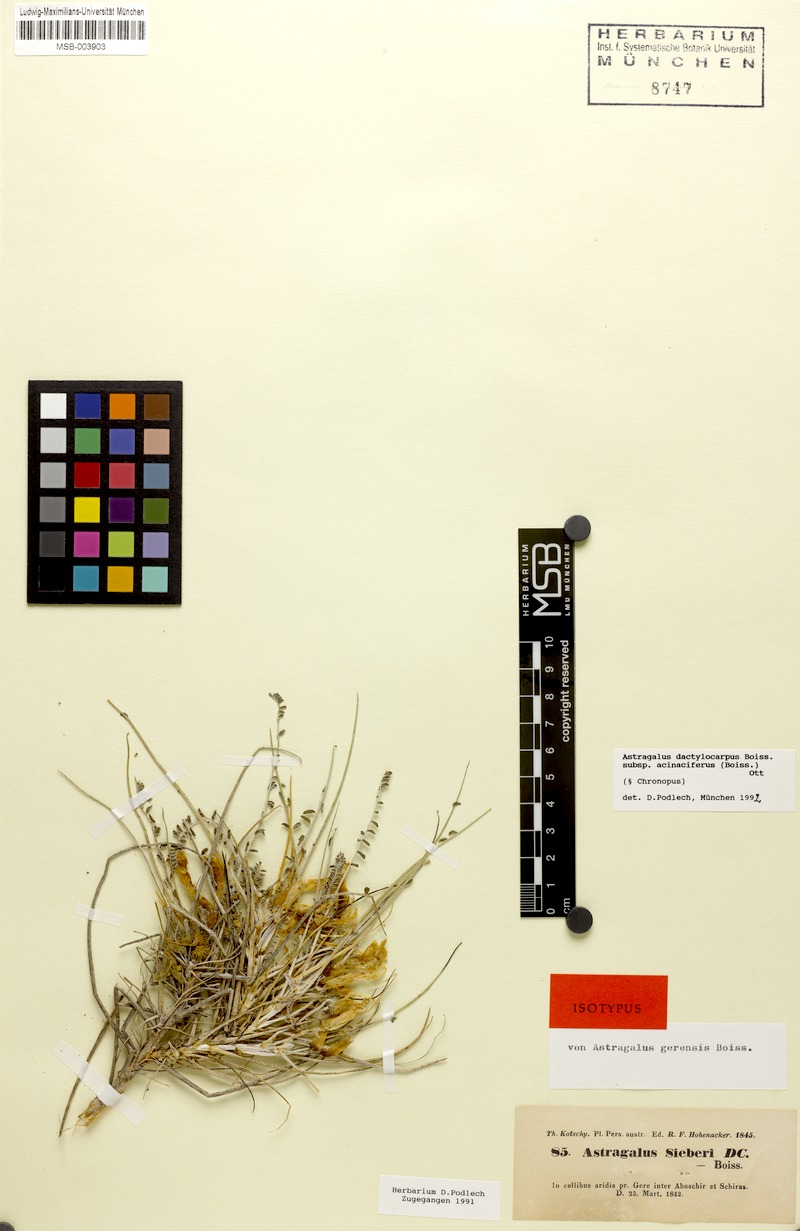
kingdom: Plantae
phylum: Tracheophyta
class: Magnoliopsida
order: Fabales
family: Fabaceae
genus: Astragalus
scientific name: Astragalus dactylocarpus
